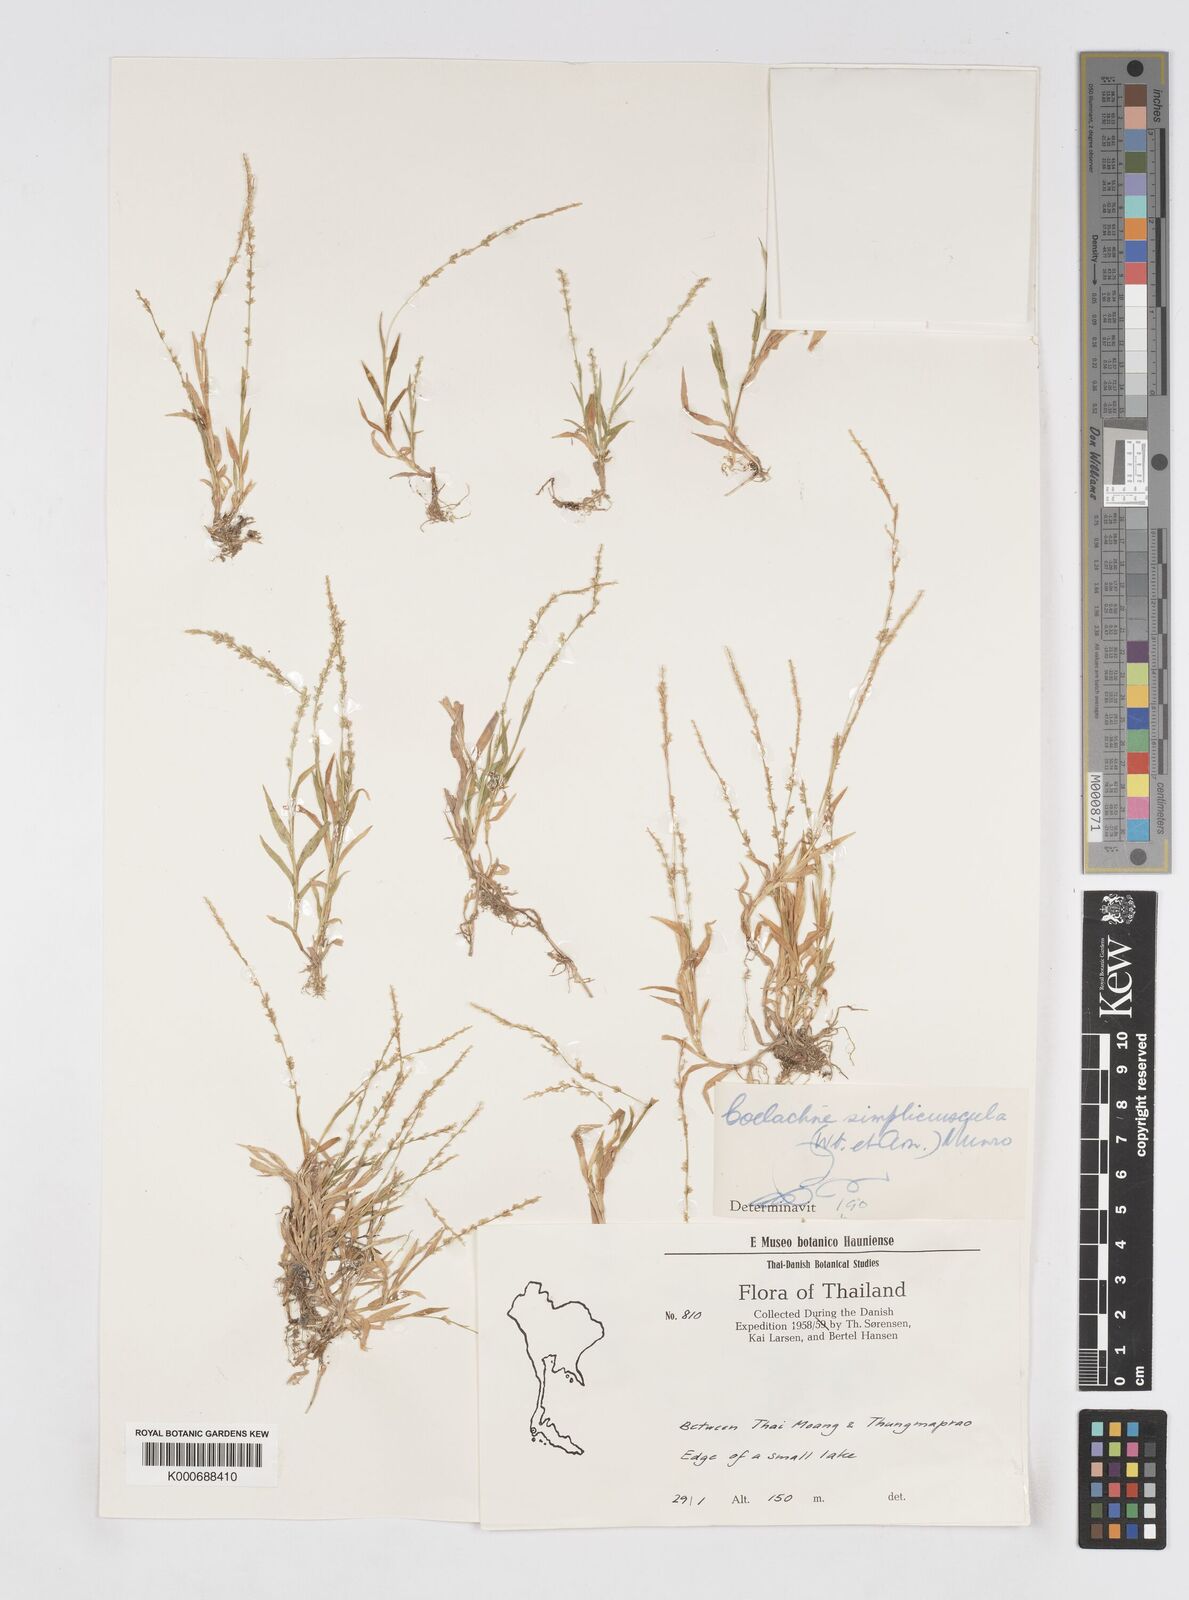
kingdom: Plantae
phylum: Tracheophyta
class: Liliopsida
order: Poales
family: Poaceae
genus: Coelachne
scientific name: Coelachne simpliciuscula
